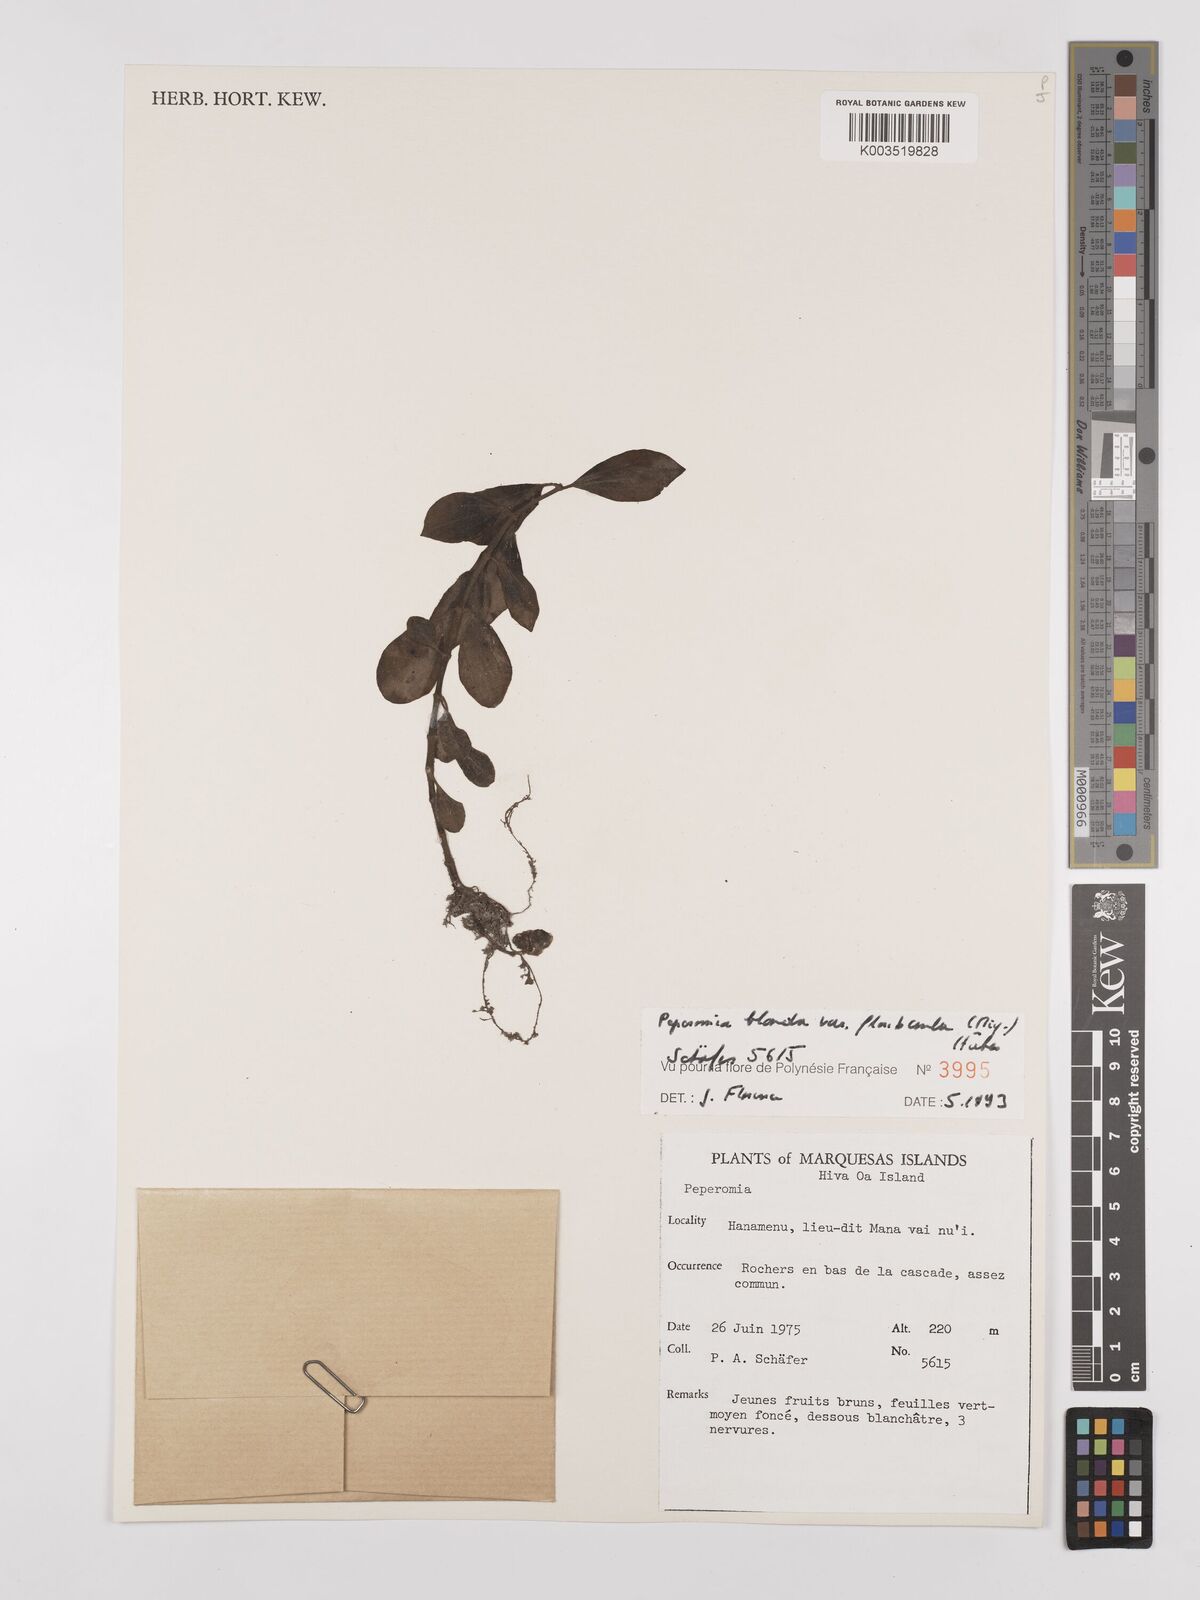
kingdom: Plantae
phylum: Tracheophyta
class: Magnoliopsida
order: Piperales
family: Piperaceae
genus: Peperomia
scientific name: Peperomia leptostachya
